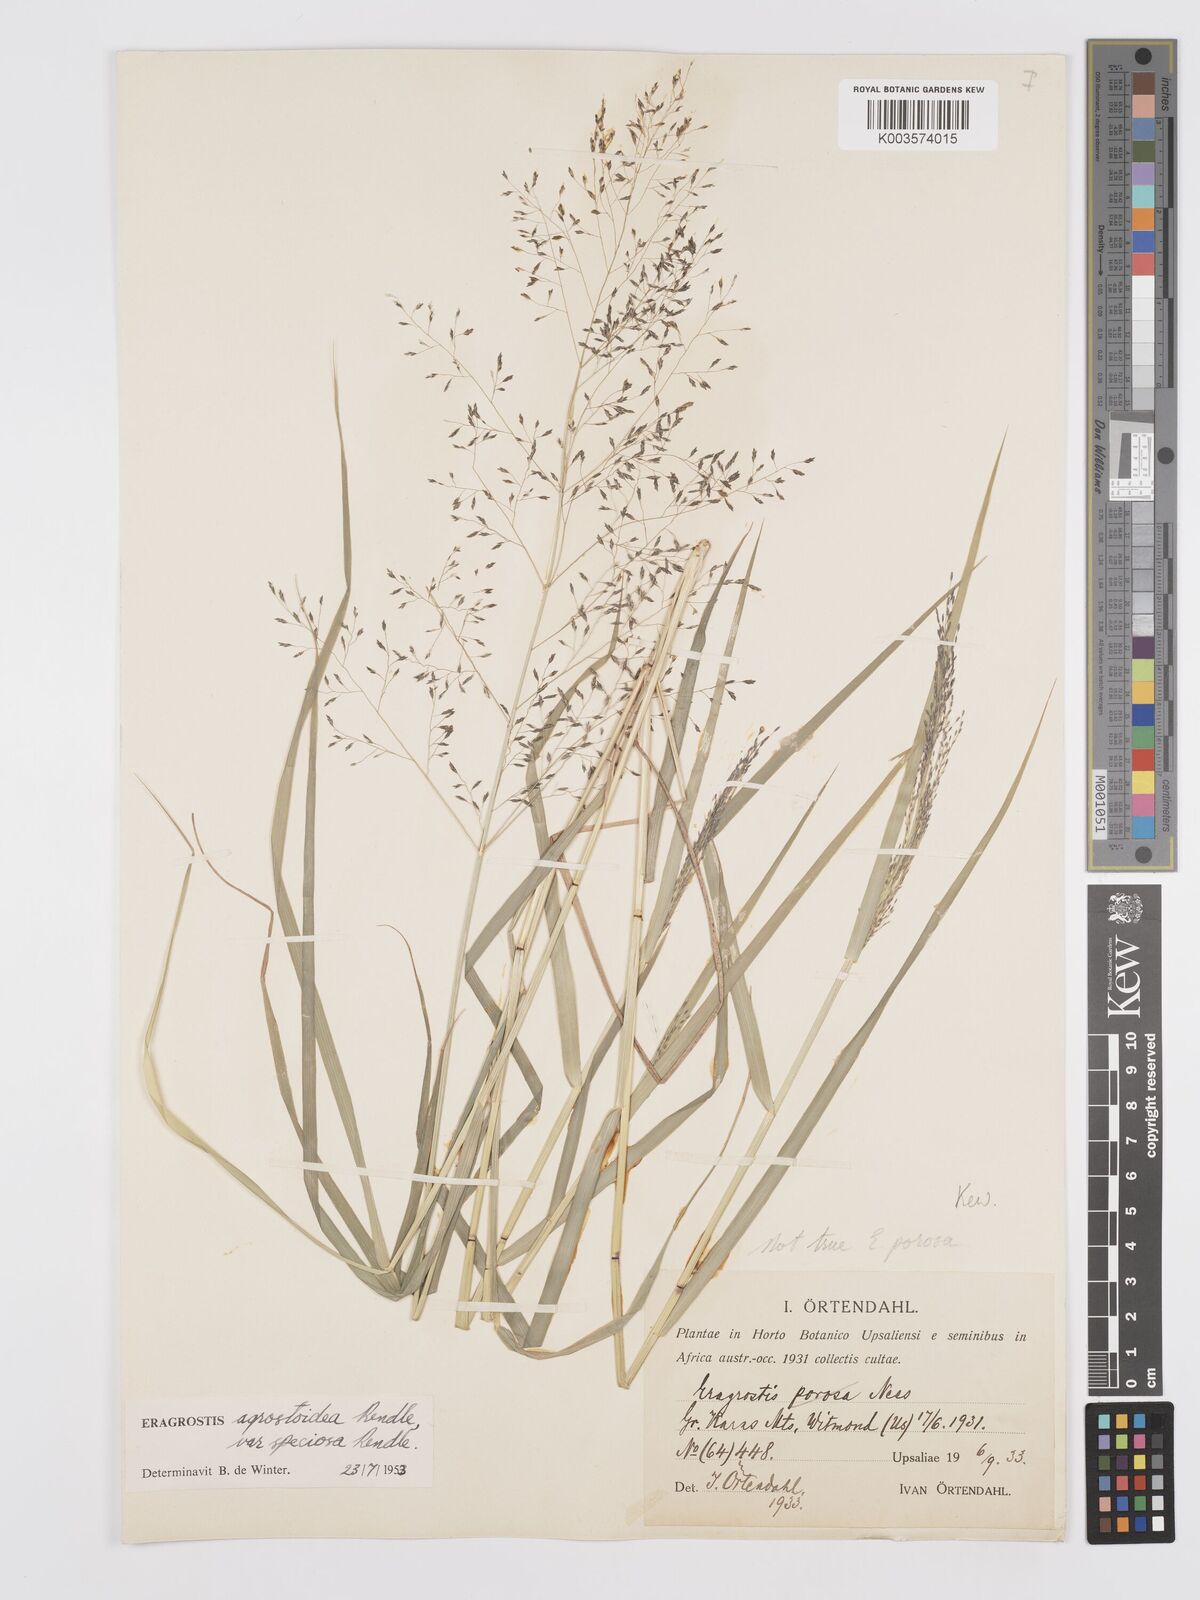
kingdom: Plantae
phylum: Tracheophyta
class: Liliopsida
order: Poales
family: Poaceae
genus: Eragrostis
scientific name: Eragrostis cylindriflora
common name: Cylinderflower lovegrass
